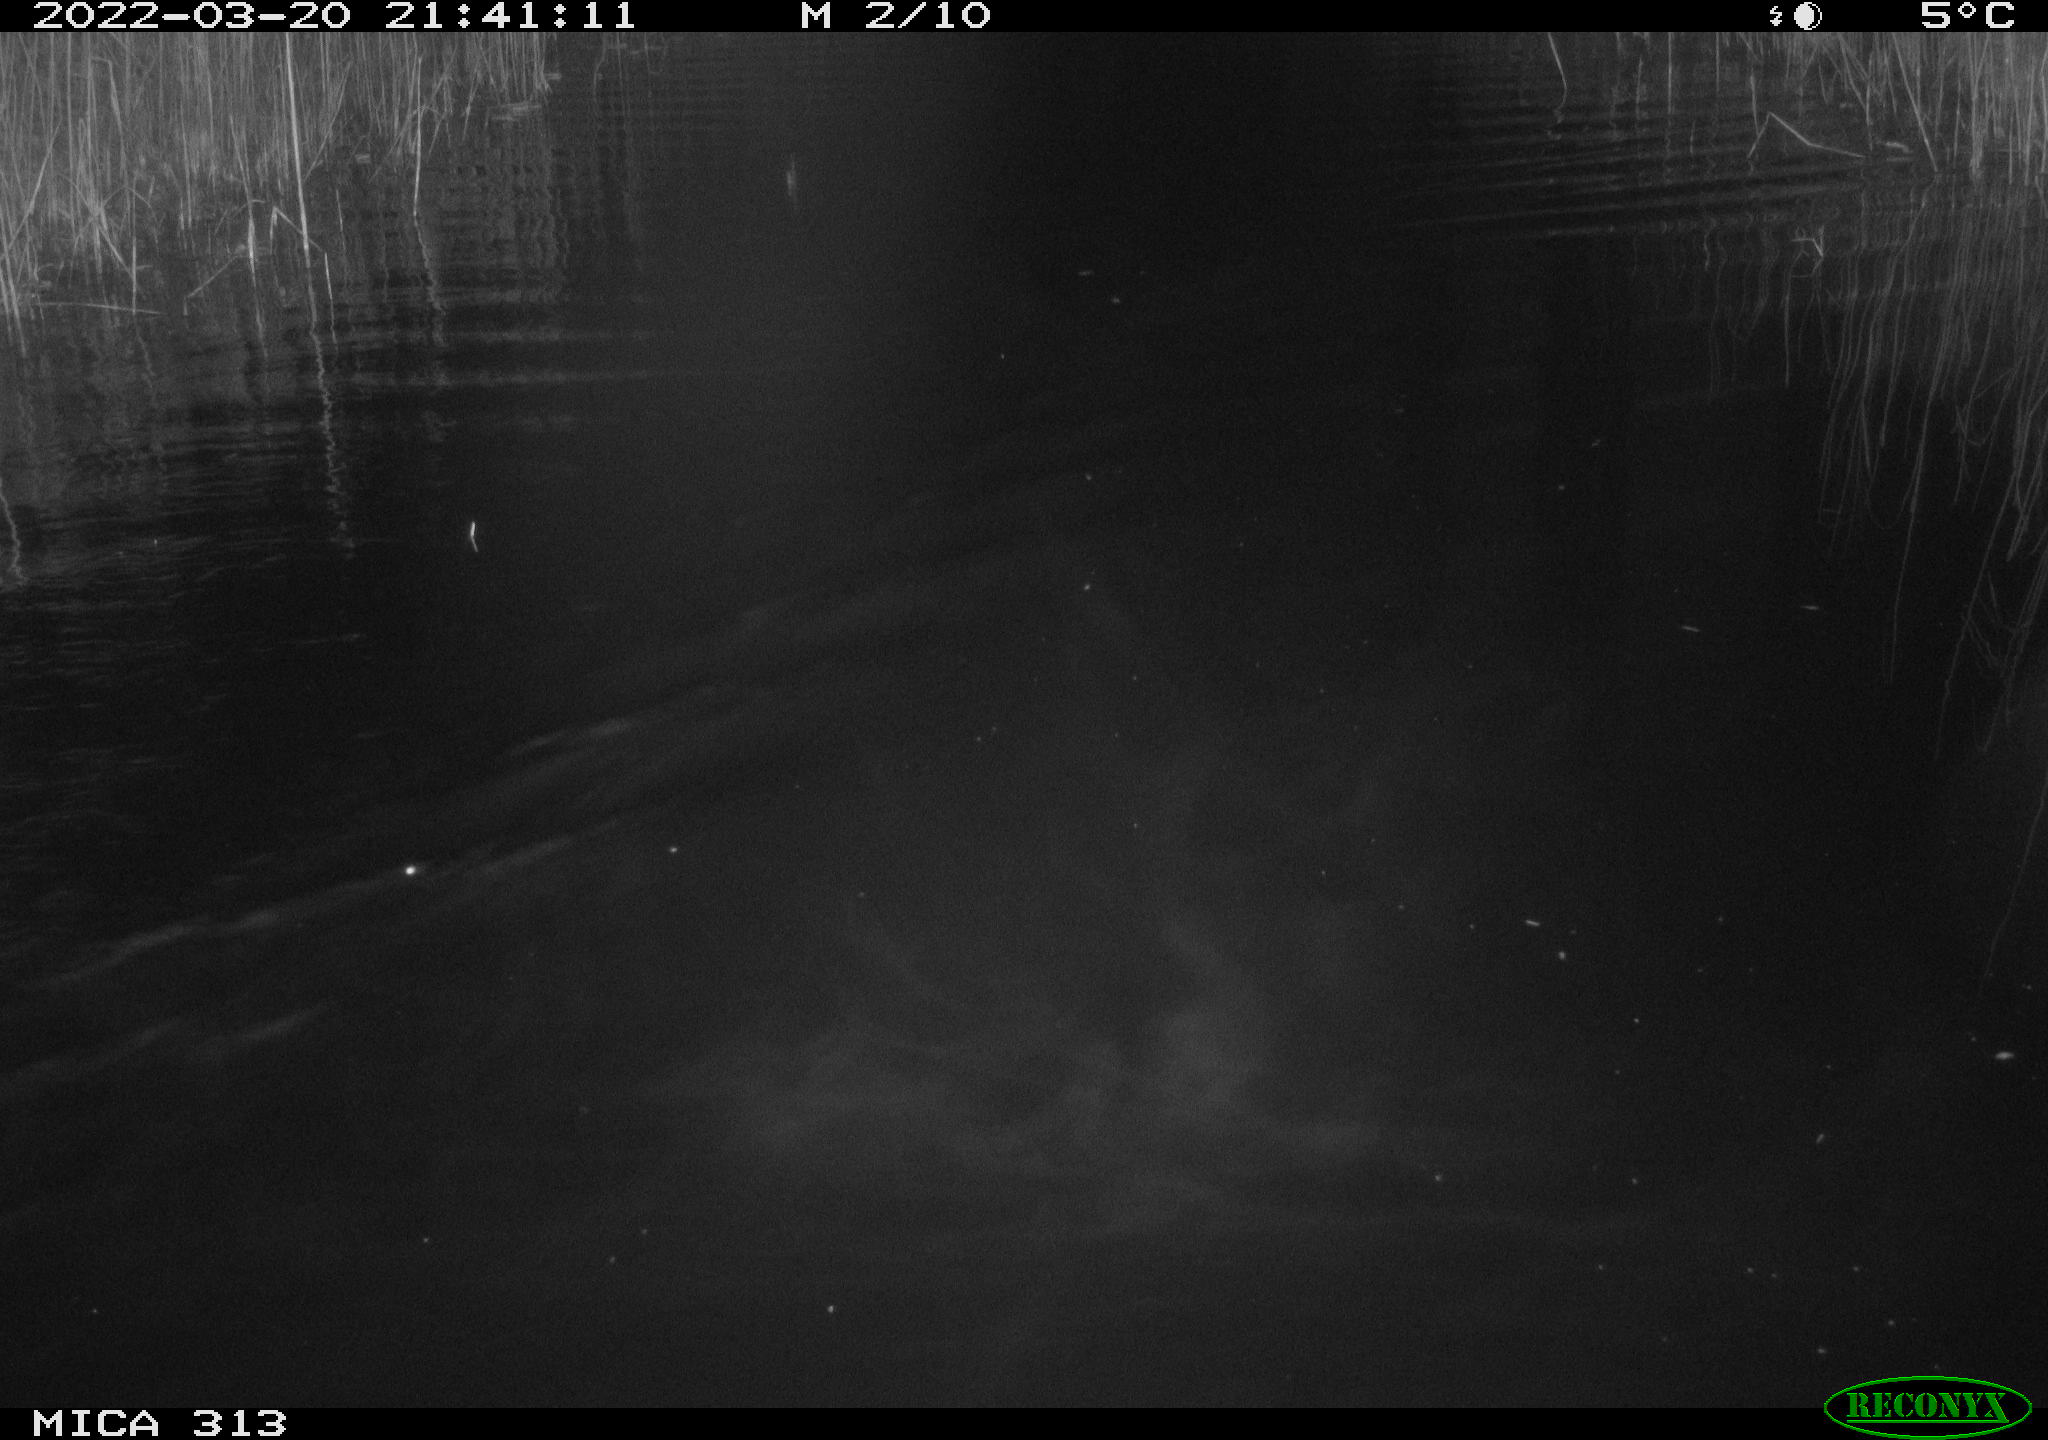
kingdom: Animalia
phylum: Chordata
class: Mammalia
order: Rodentia
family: Cricetidae
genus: Ondatra
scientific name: Ondatra zibethicus
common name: Muskrat
